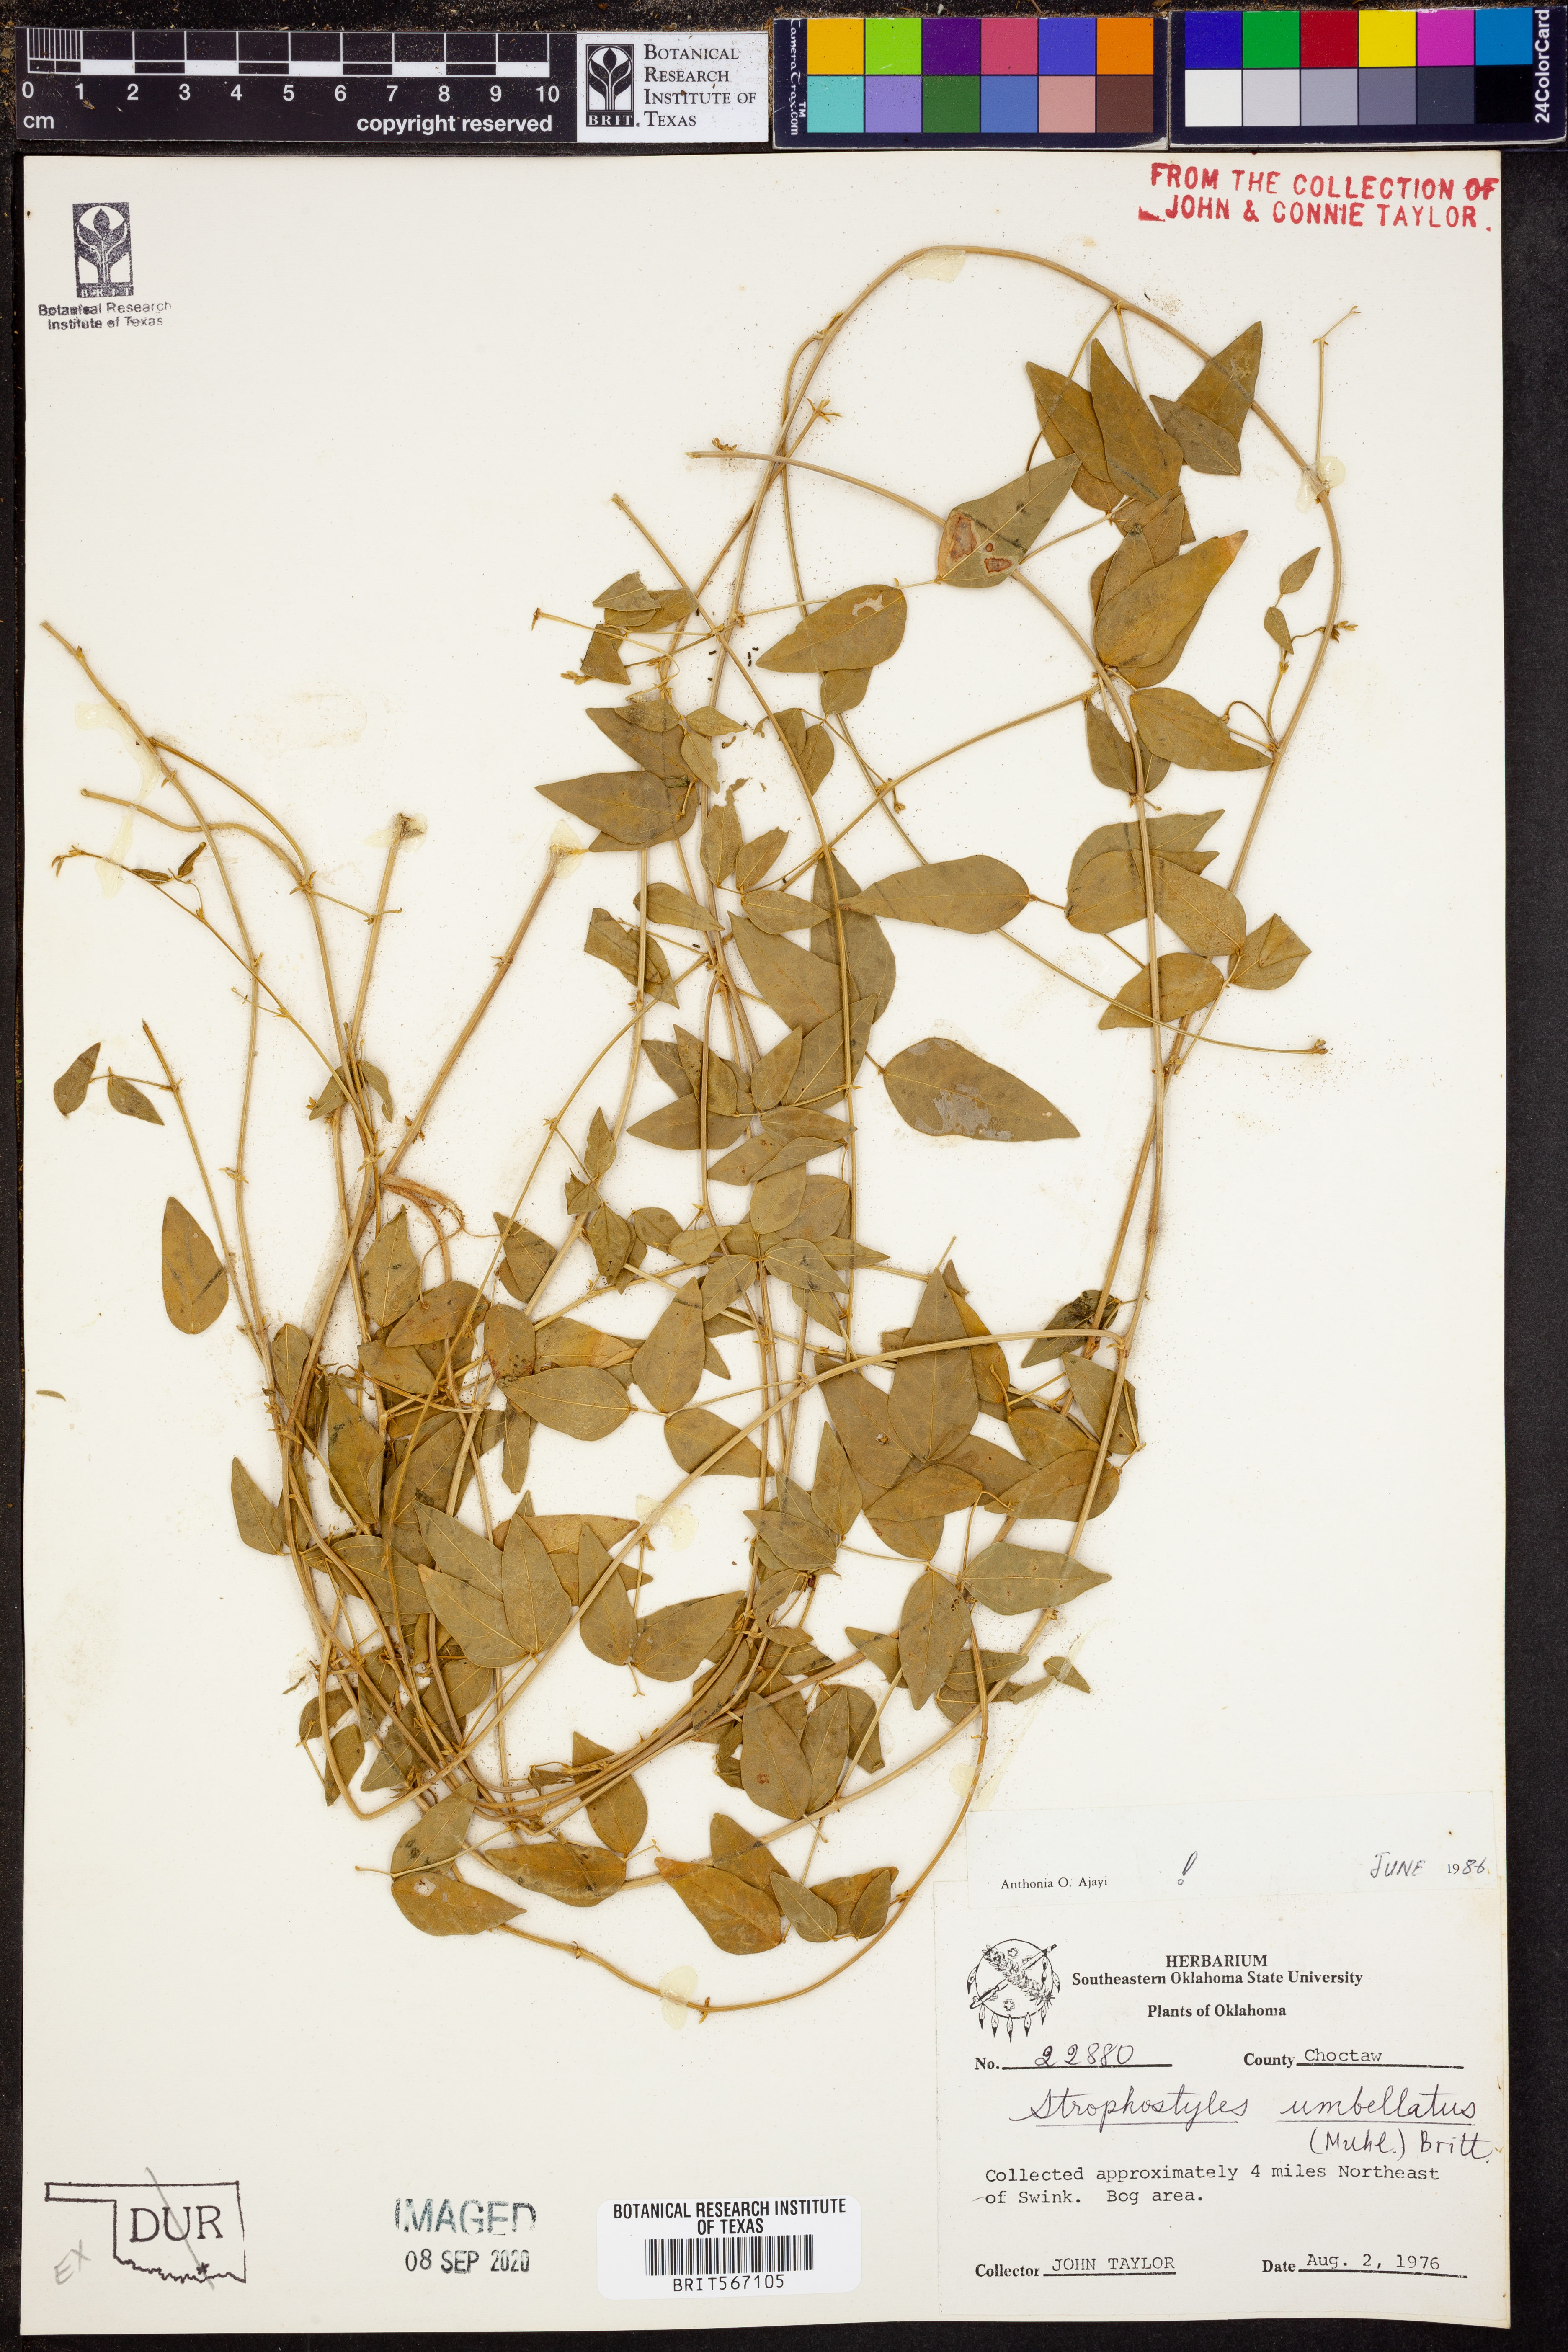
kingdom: Plantae
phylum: Tracheophyta
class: Magnoliopsida
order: Fabales
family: Fabaceae
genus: Strophostyles
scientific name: Strophostyles umbellata
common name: Perennial wild bean
